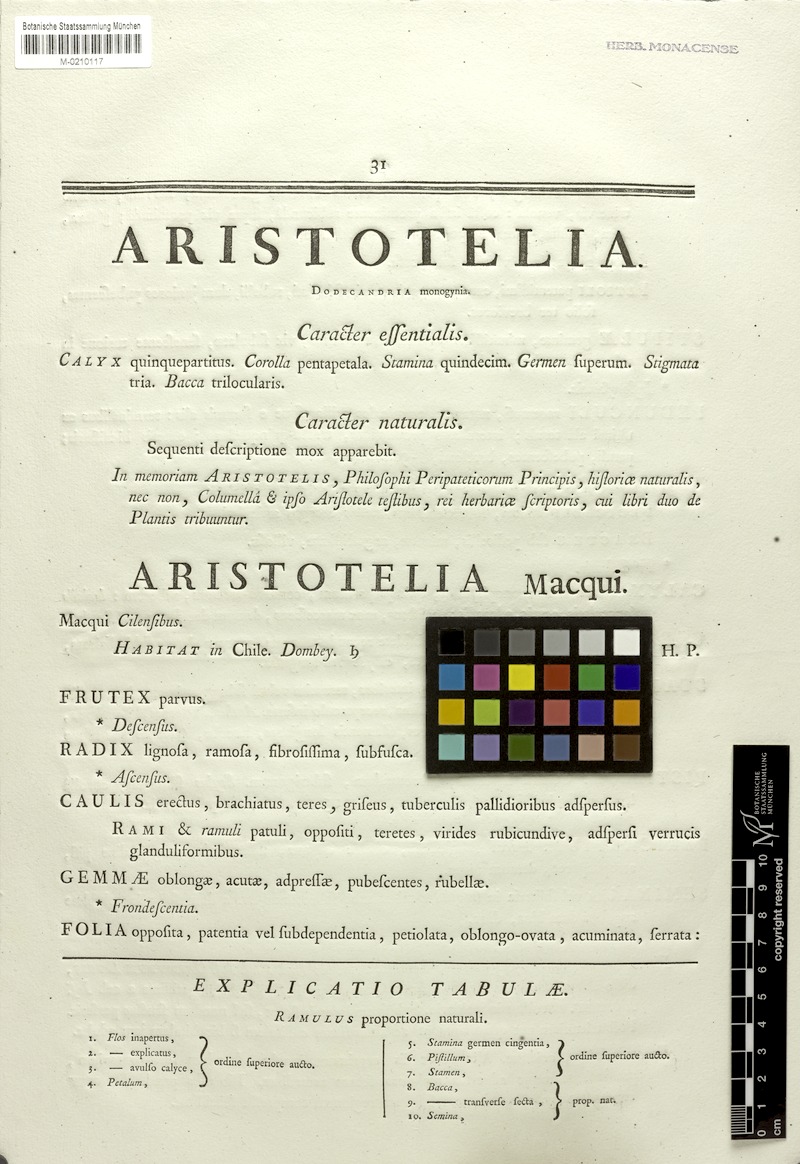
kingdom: Plantae
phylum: Tracheophyta
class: Magnoliopsida
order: Oxalidales
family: Elaeocarpaceae
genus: Aristotelia
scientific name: Aristotelia chilensis
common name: Maquei
